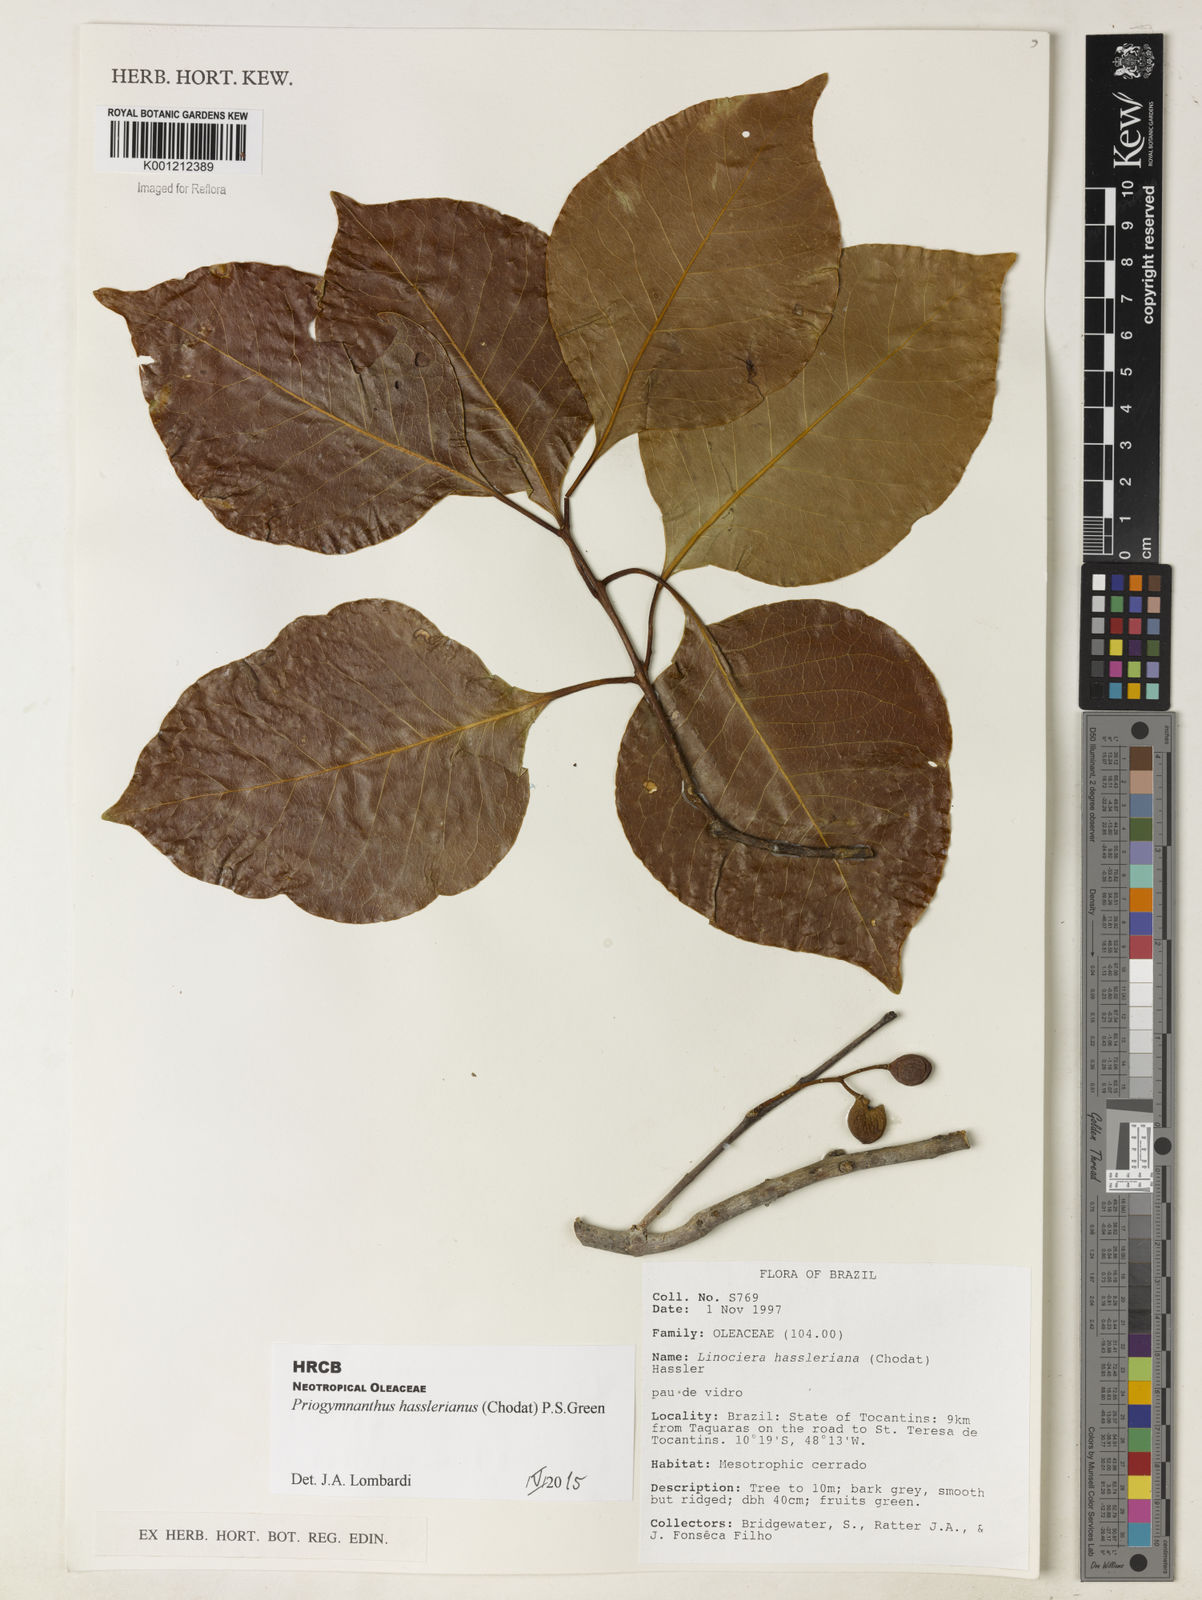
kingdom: Plantae
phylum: Tracheophyta
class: Magnoliopsida
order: Lamiales
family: Oleaceae
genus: Priogymnanthus
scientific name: Priogymnanthus hasslerianus
